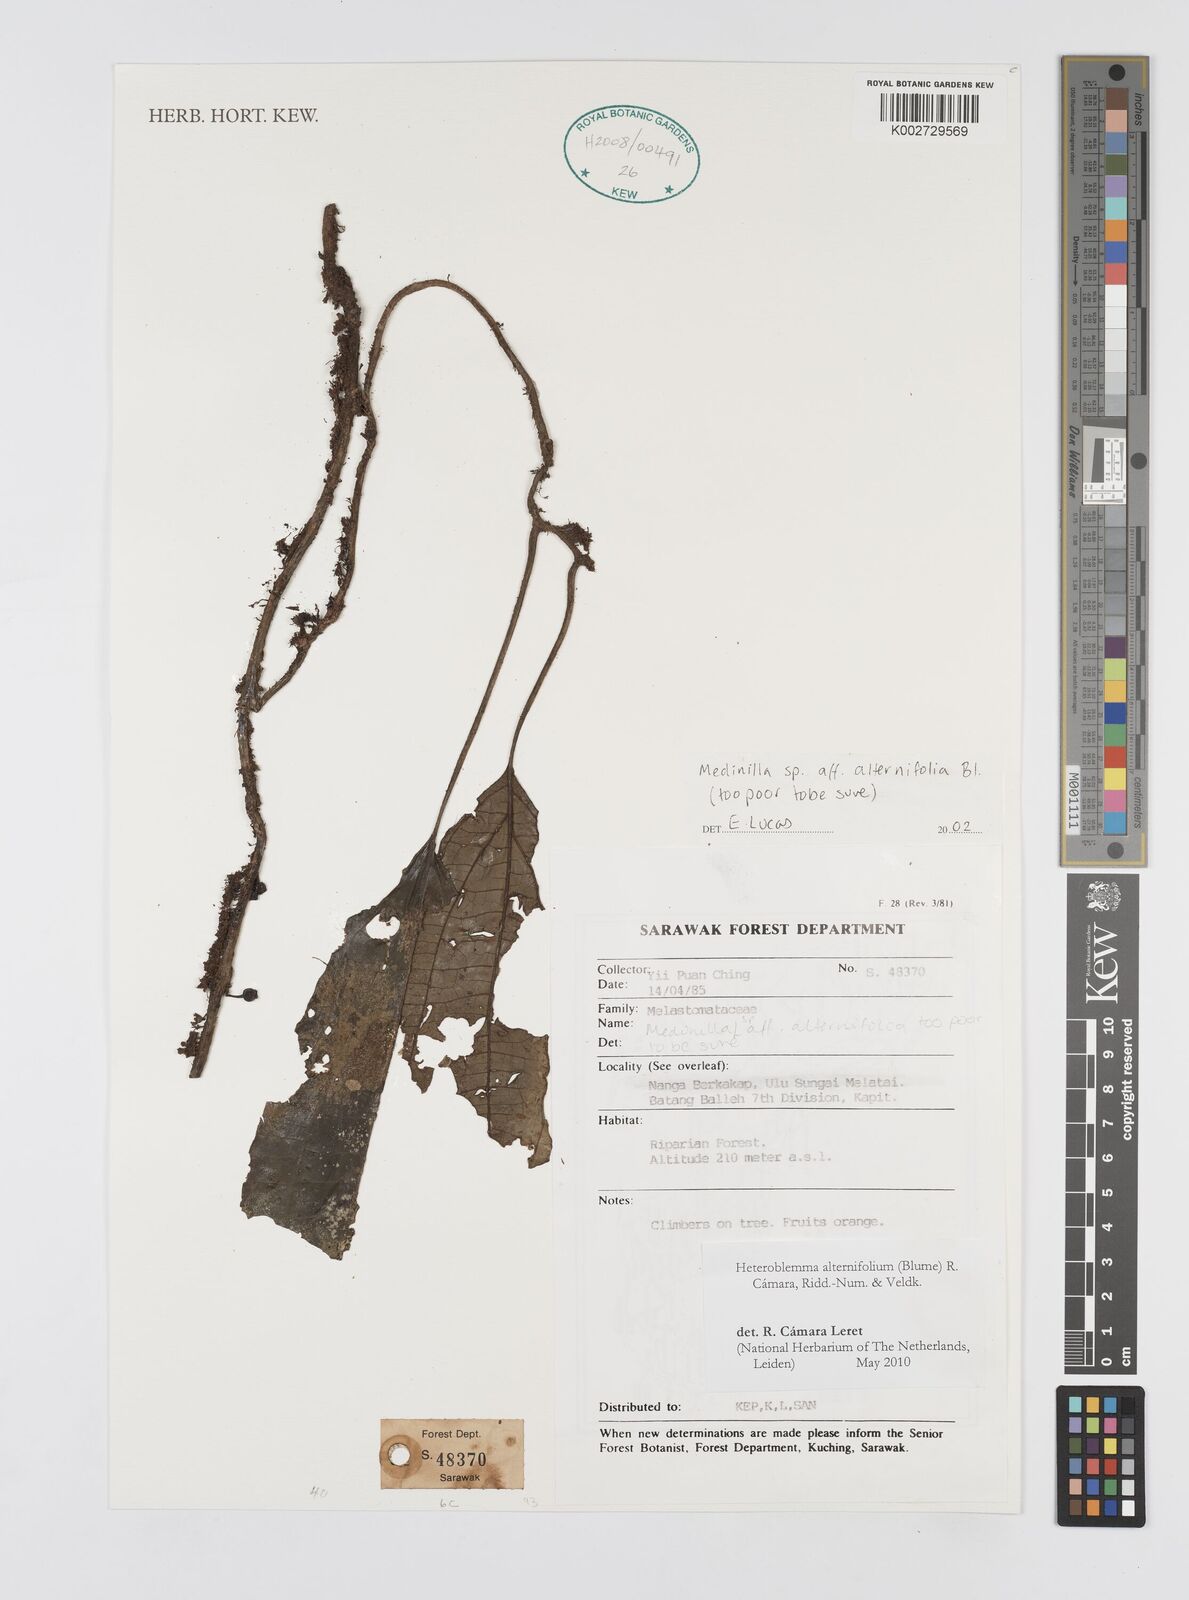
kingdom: Plantae
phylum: Tracheophyta
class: Magnoliopsida
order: Myrtales
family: Melastomataceae
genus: Heteroblemma
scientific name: Heteroblemma alternifolium
